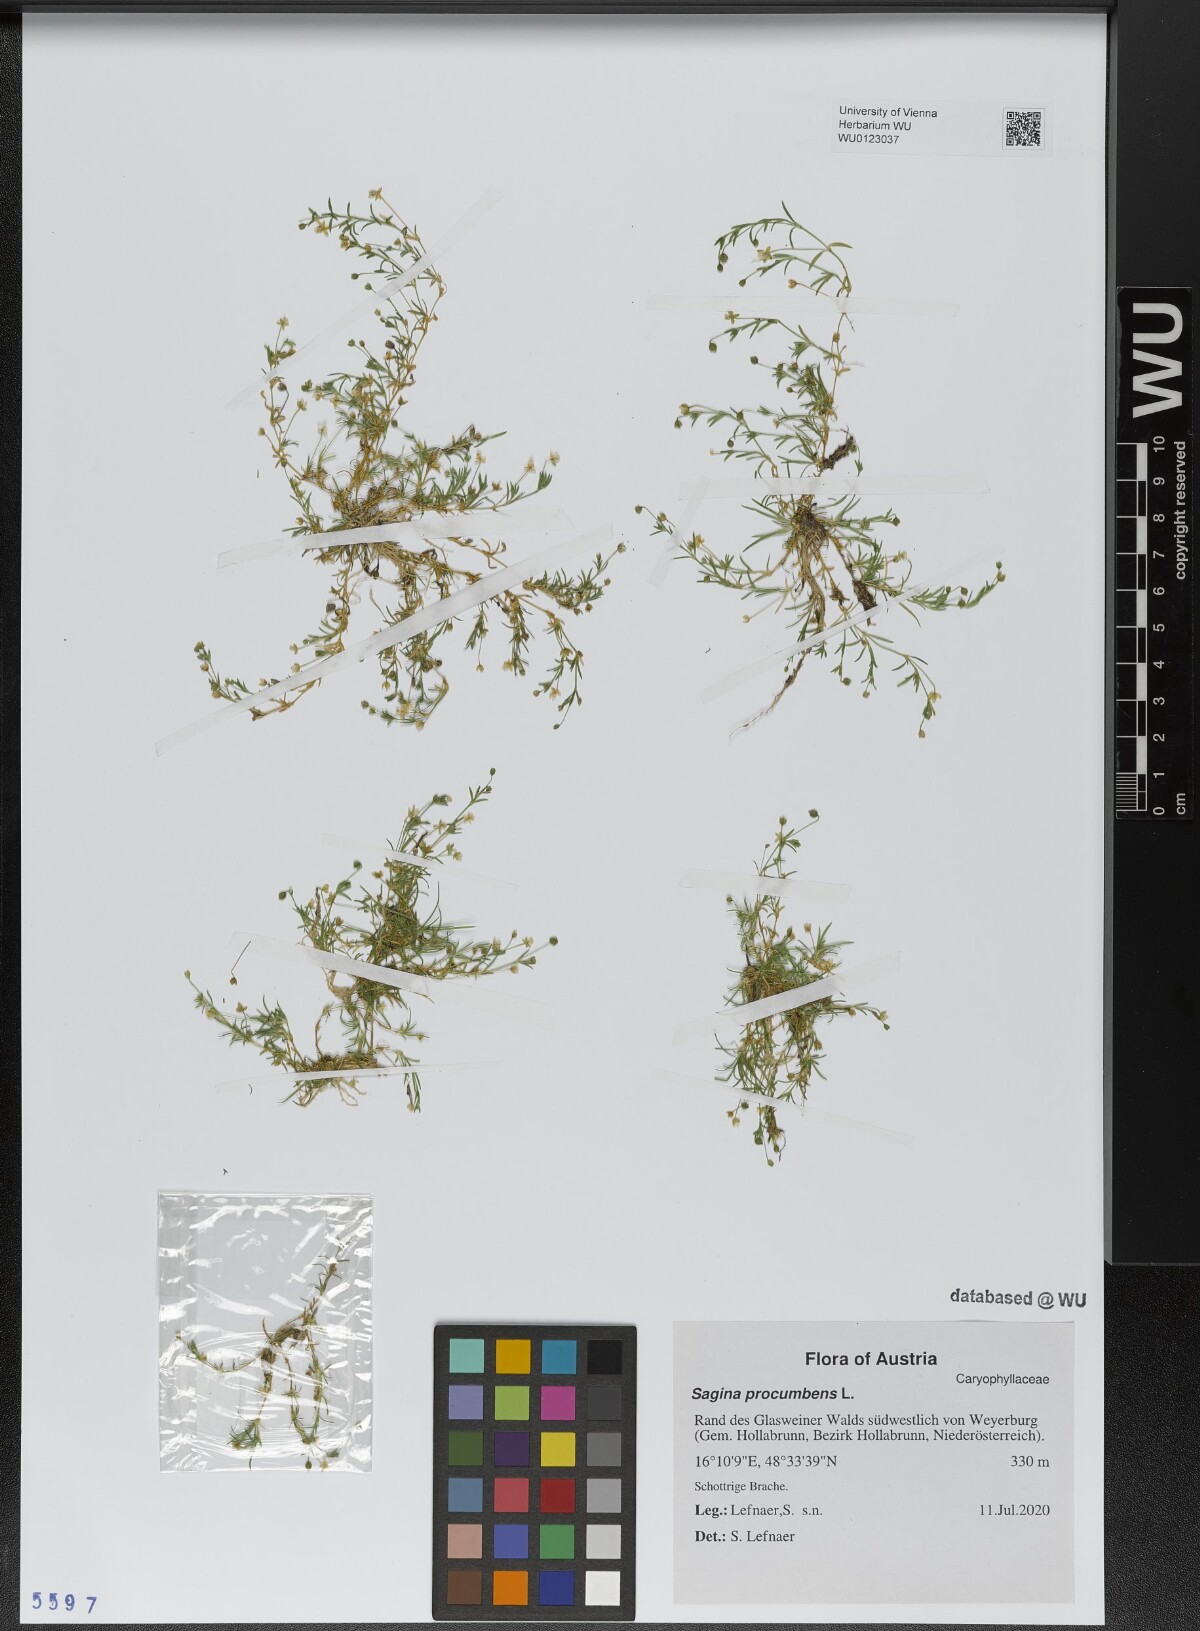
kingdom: Plantae
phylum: Tracheophyta
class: Magnoliopsida
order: Caryophyllales
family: Caryophyllaceae
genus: Sagina
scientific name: Sagina procumbens
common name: Procumbent pearlwort
